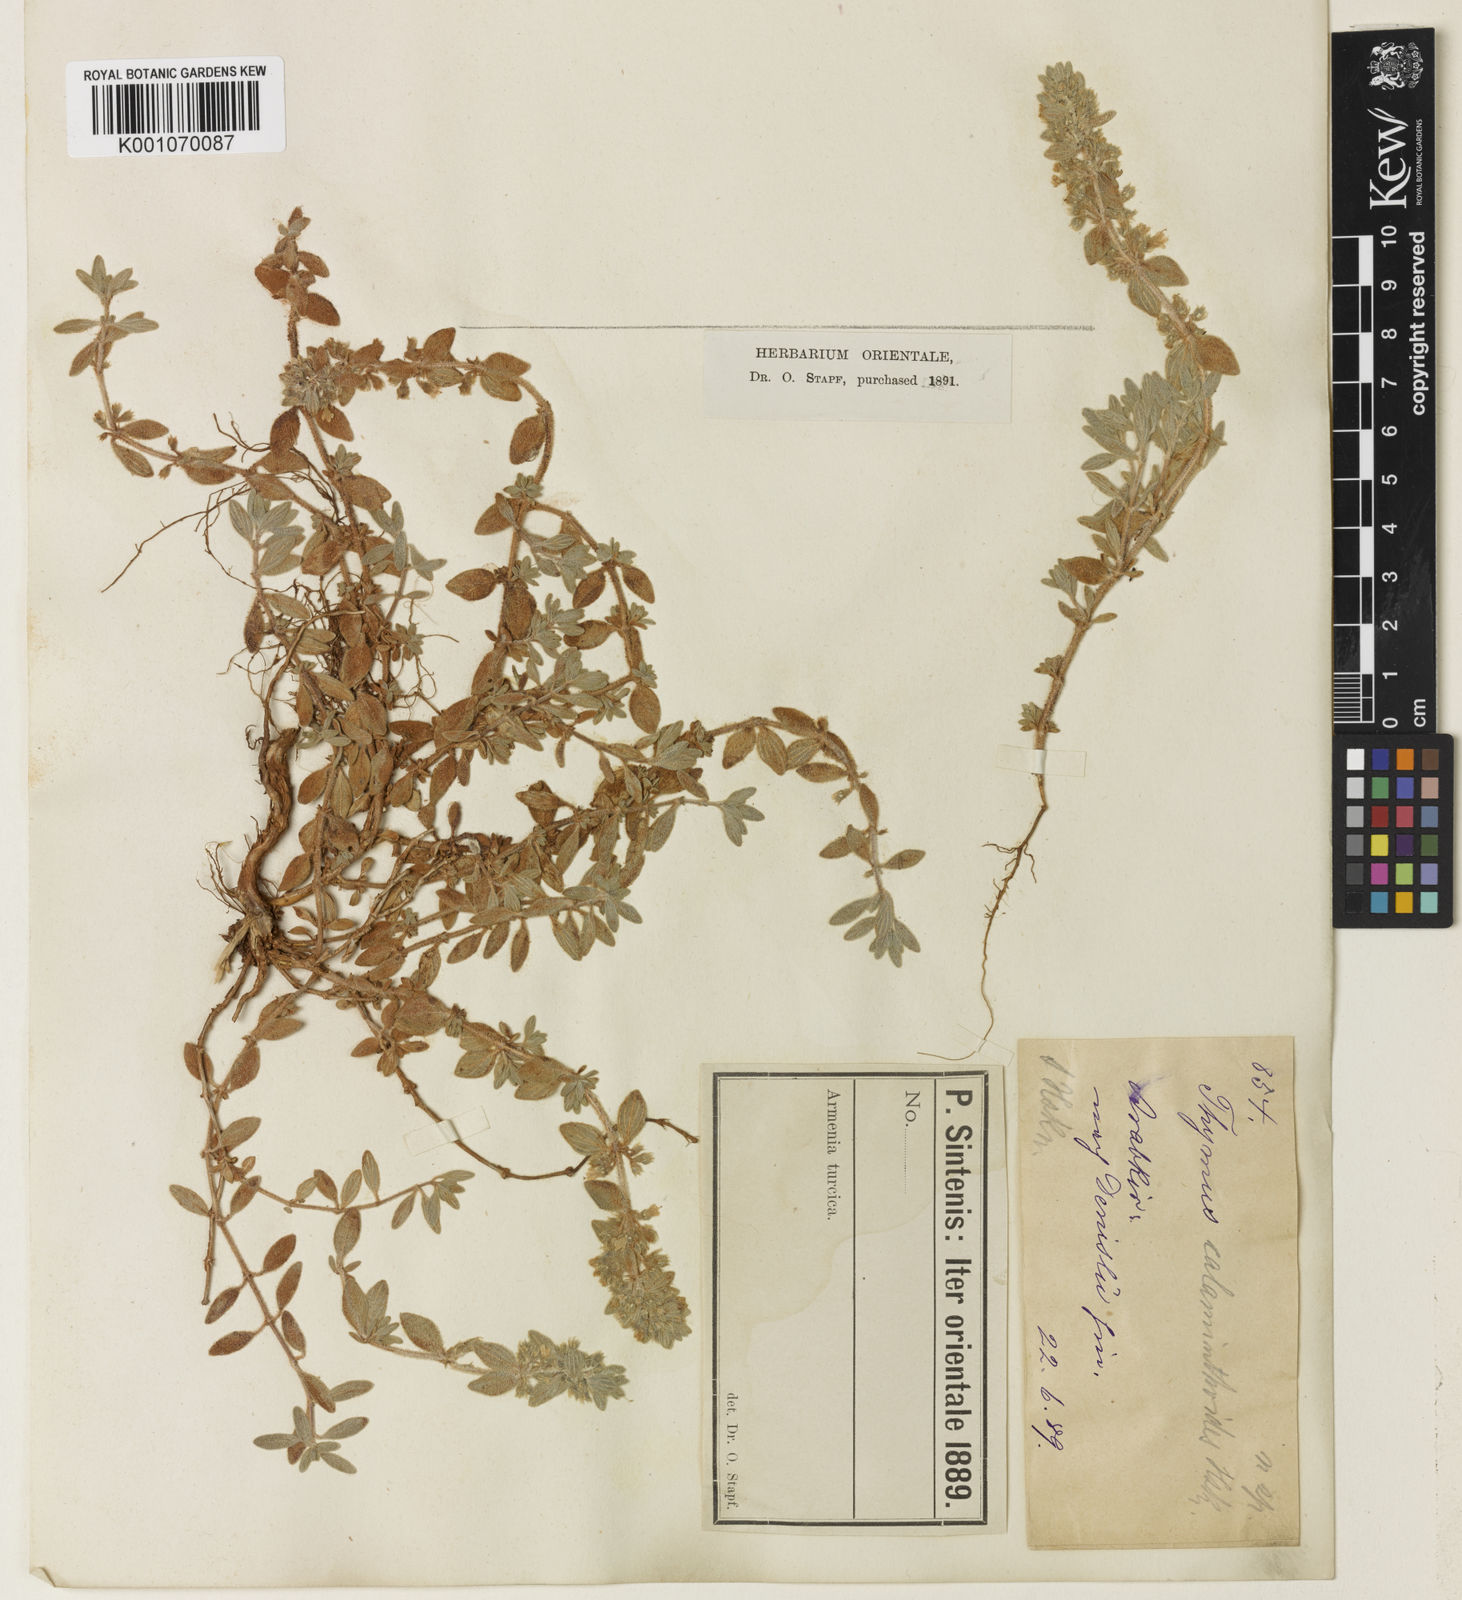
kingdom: Plantae
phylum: Tracheophyta
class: Magnoliopsida
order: Lamiales
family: Lamiaceae
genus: Thymus
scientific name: Thymus
